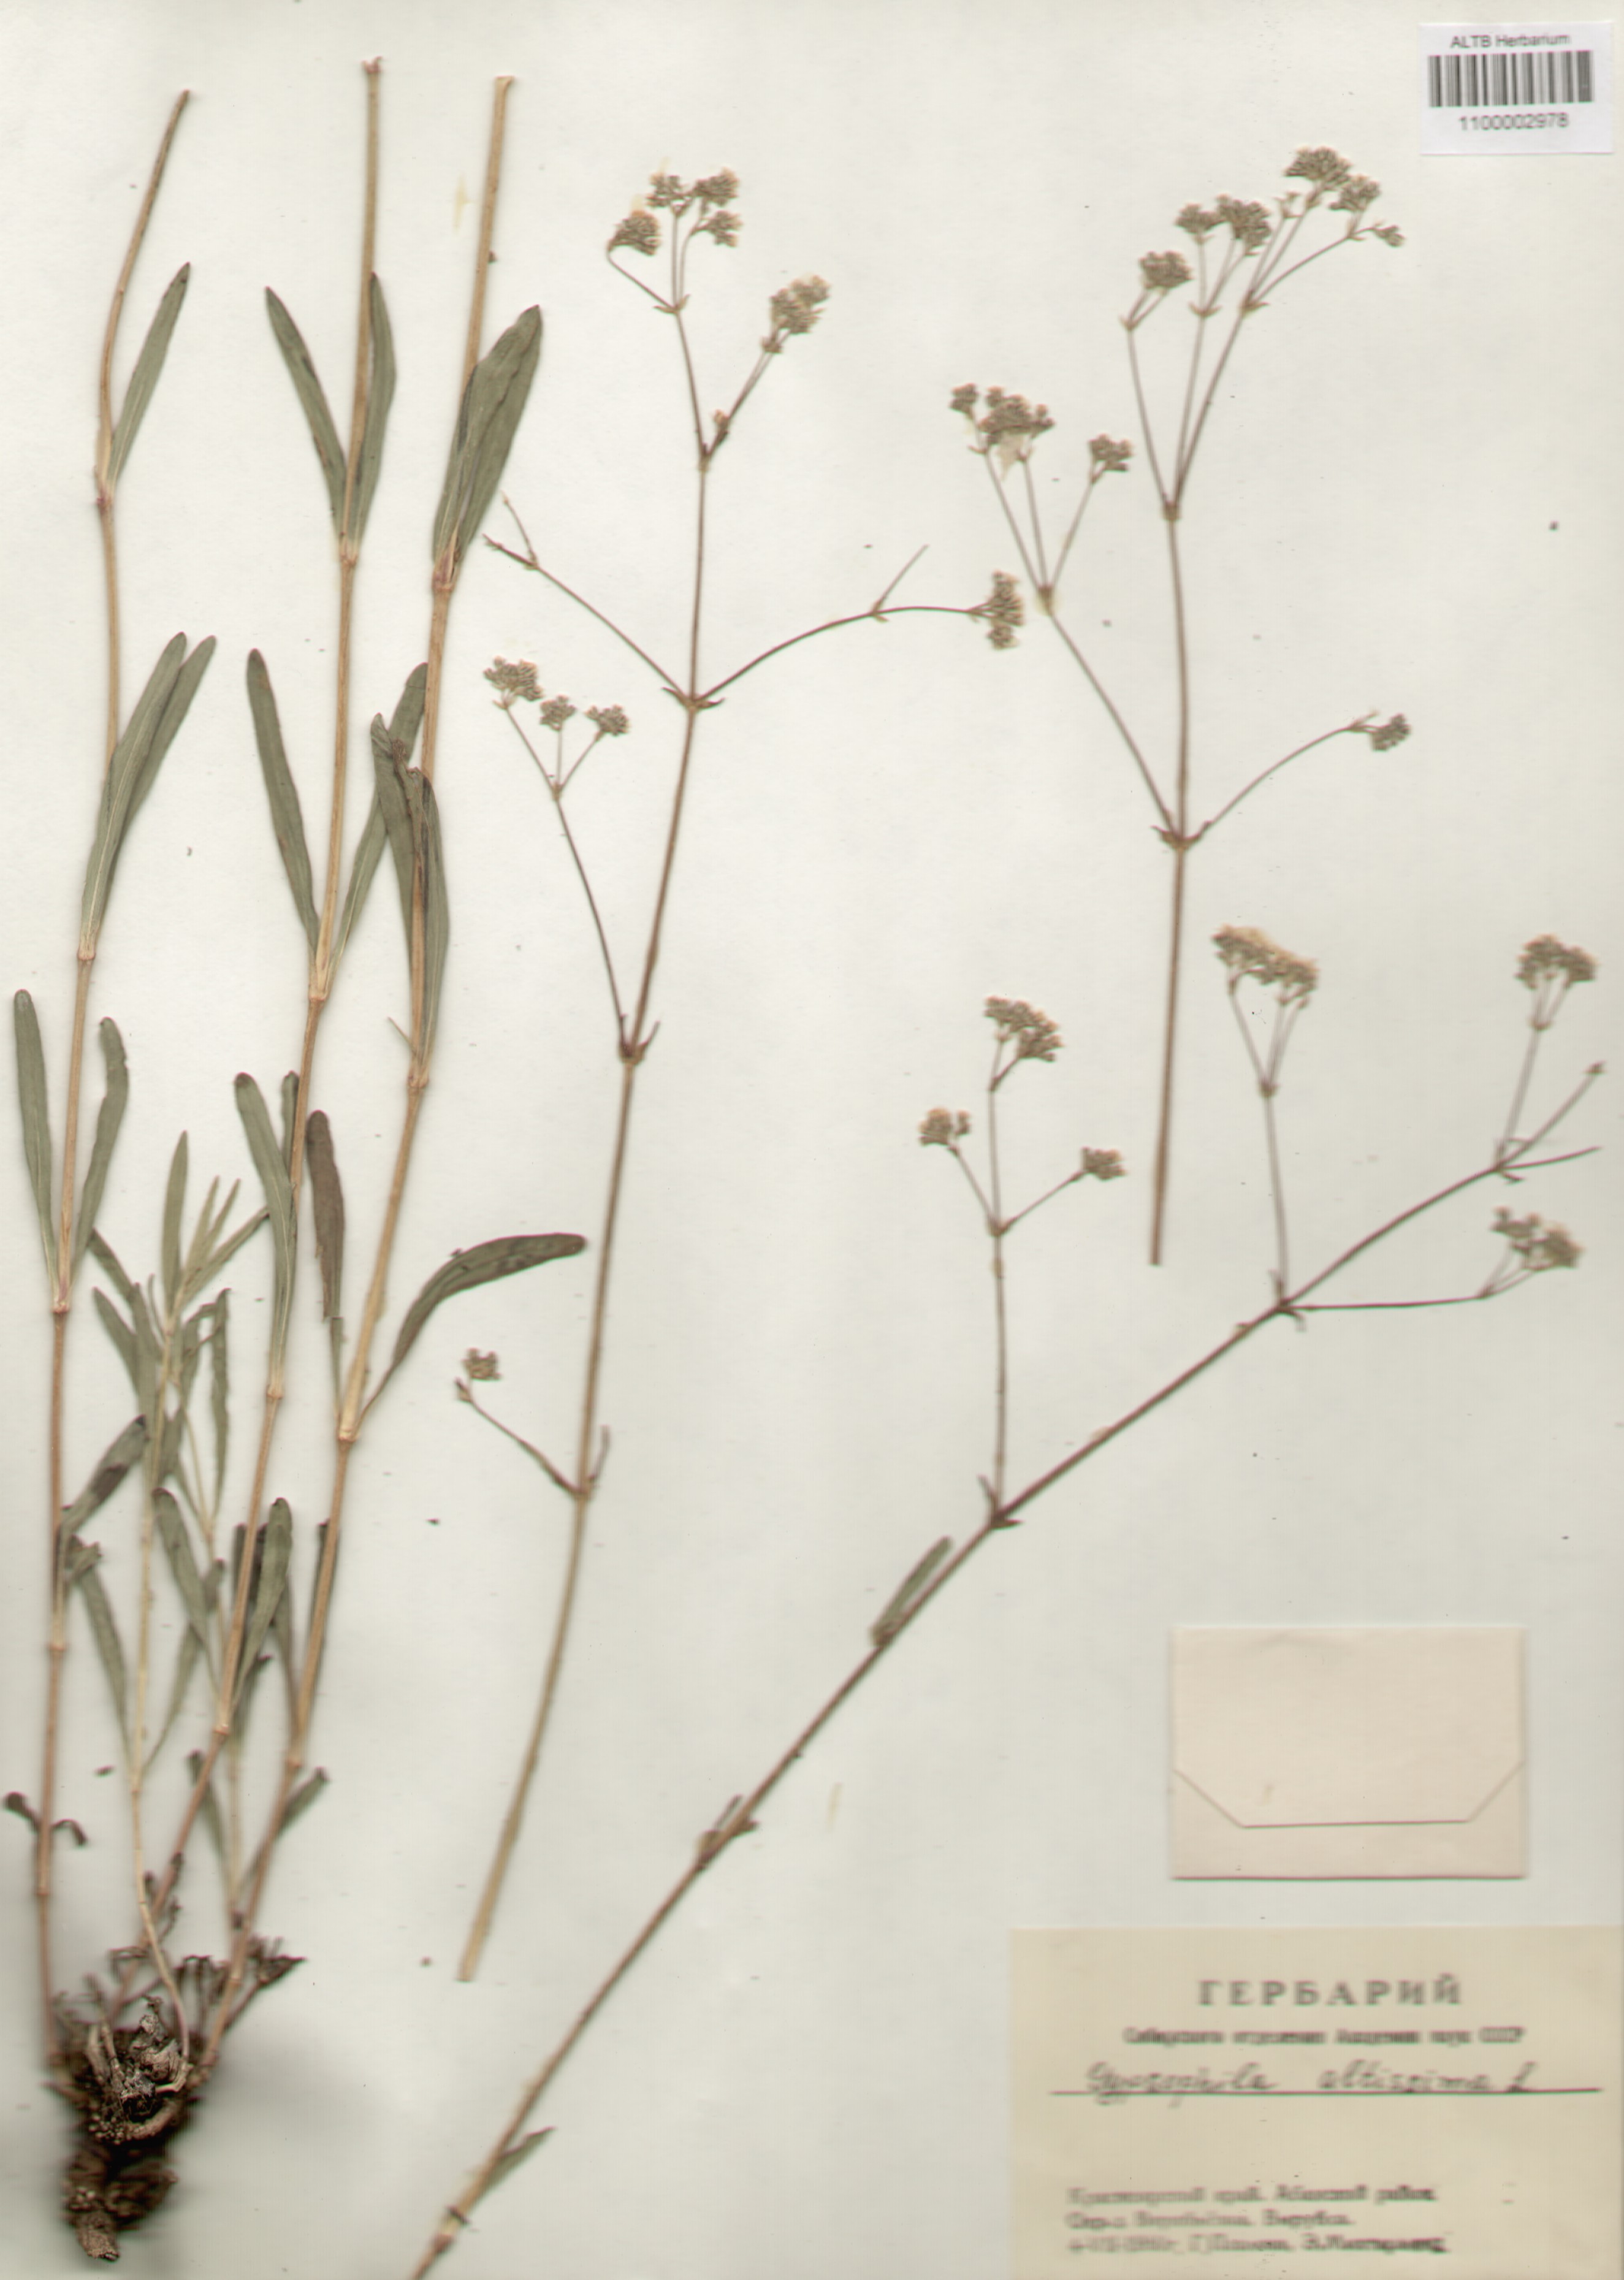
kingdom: Plantae
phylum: Tracheophyta
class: Magnoliopsida
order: Caryophyllales
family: Caryophyllaceae
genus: Gypsophila
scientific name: Gypsophila altissima
